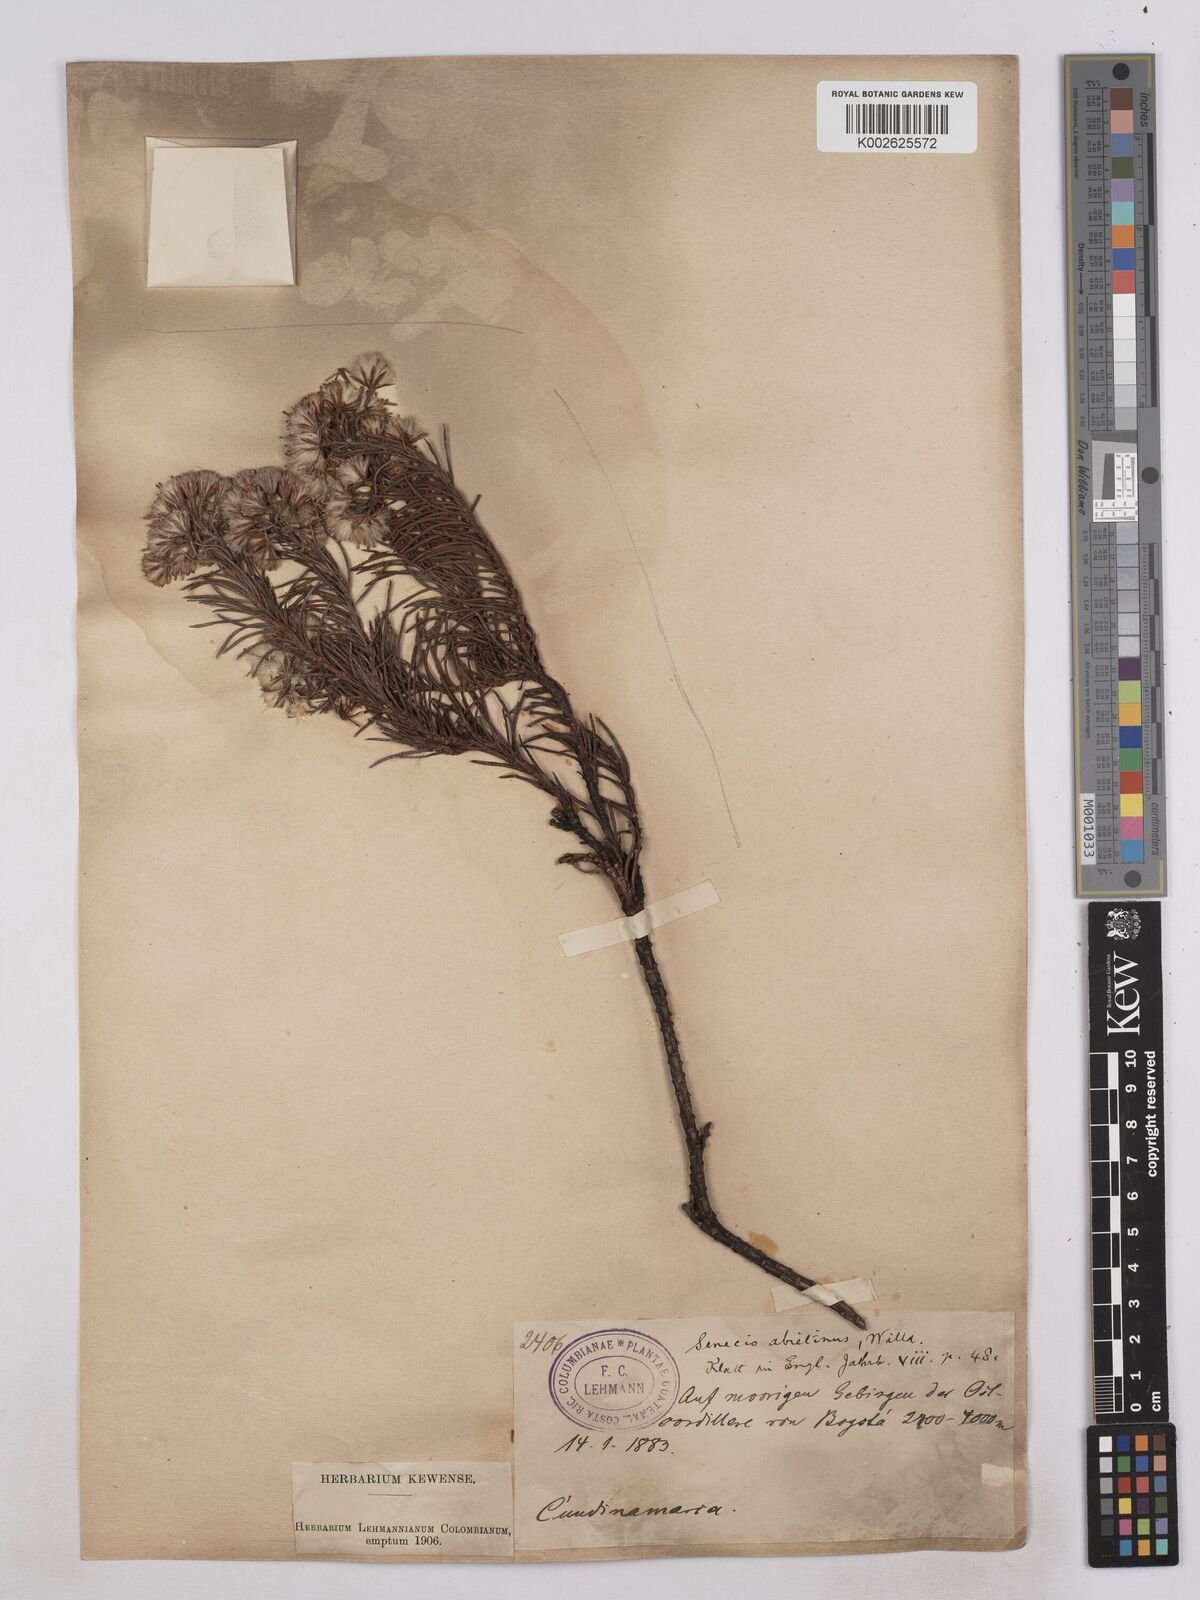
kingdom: Plantae
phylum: Tracheophyta
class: Magnoliopsida
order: Asterales
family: Asteraceae
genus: Monticalia
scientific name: Monticalia abietina
